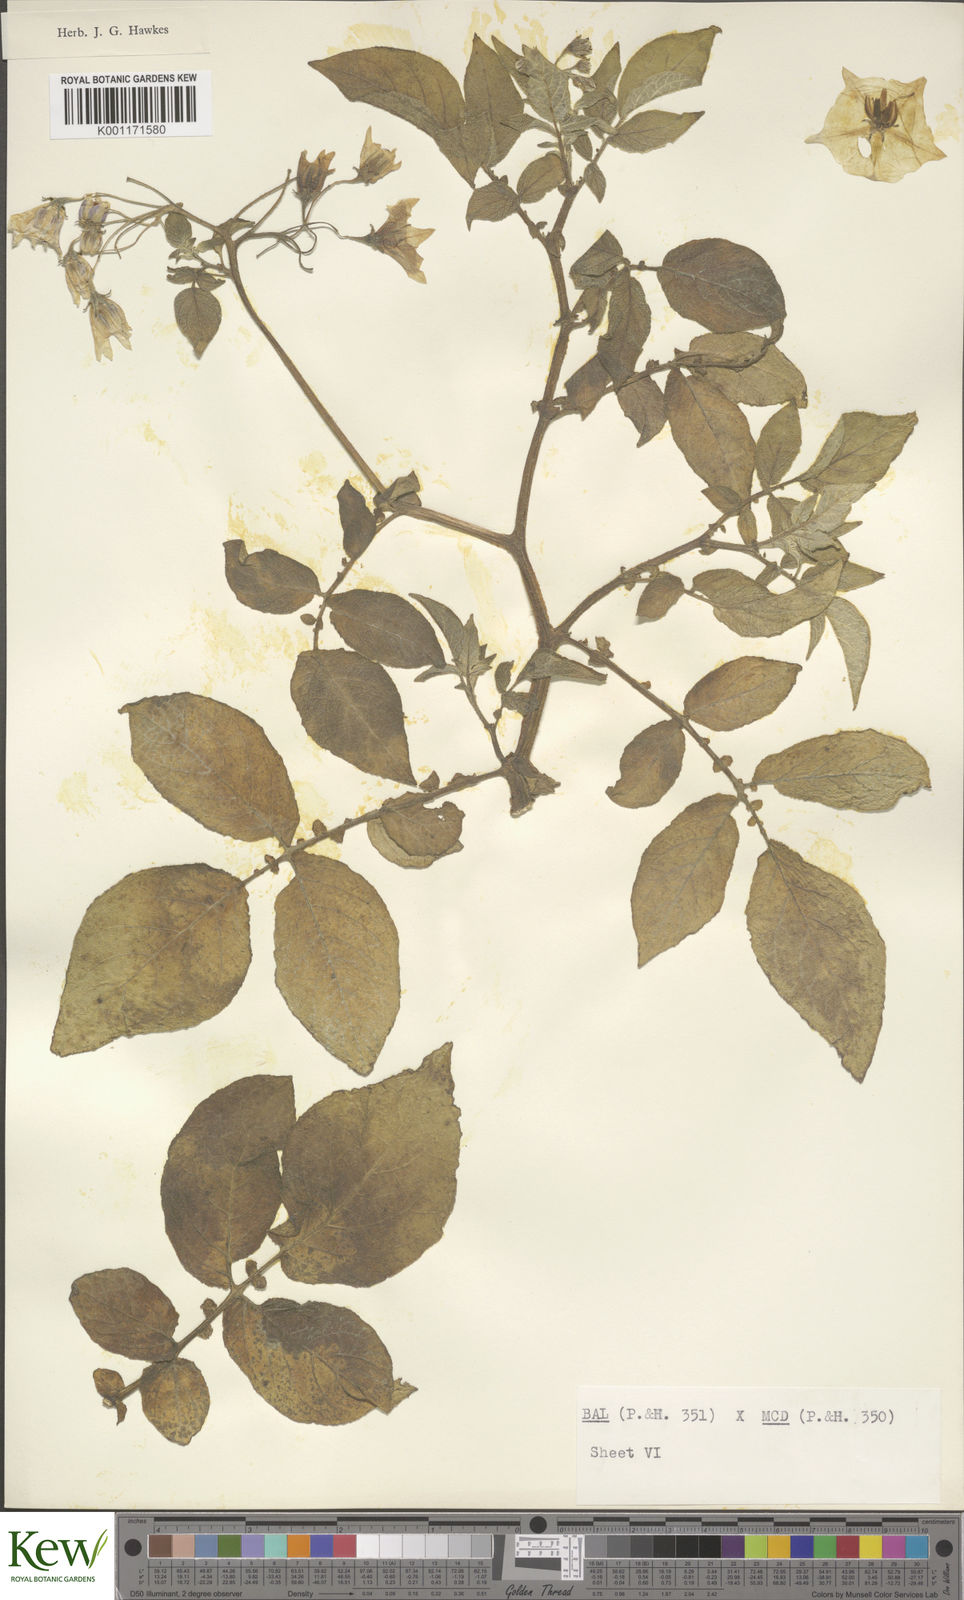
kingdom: Plantae
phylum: Tracheophyta
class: Magnoliopsida
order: Solanales
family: Solanaceae
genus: Solanum
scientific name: Solanum vernei
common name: Purple potato
